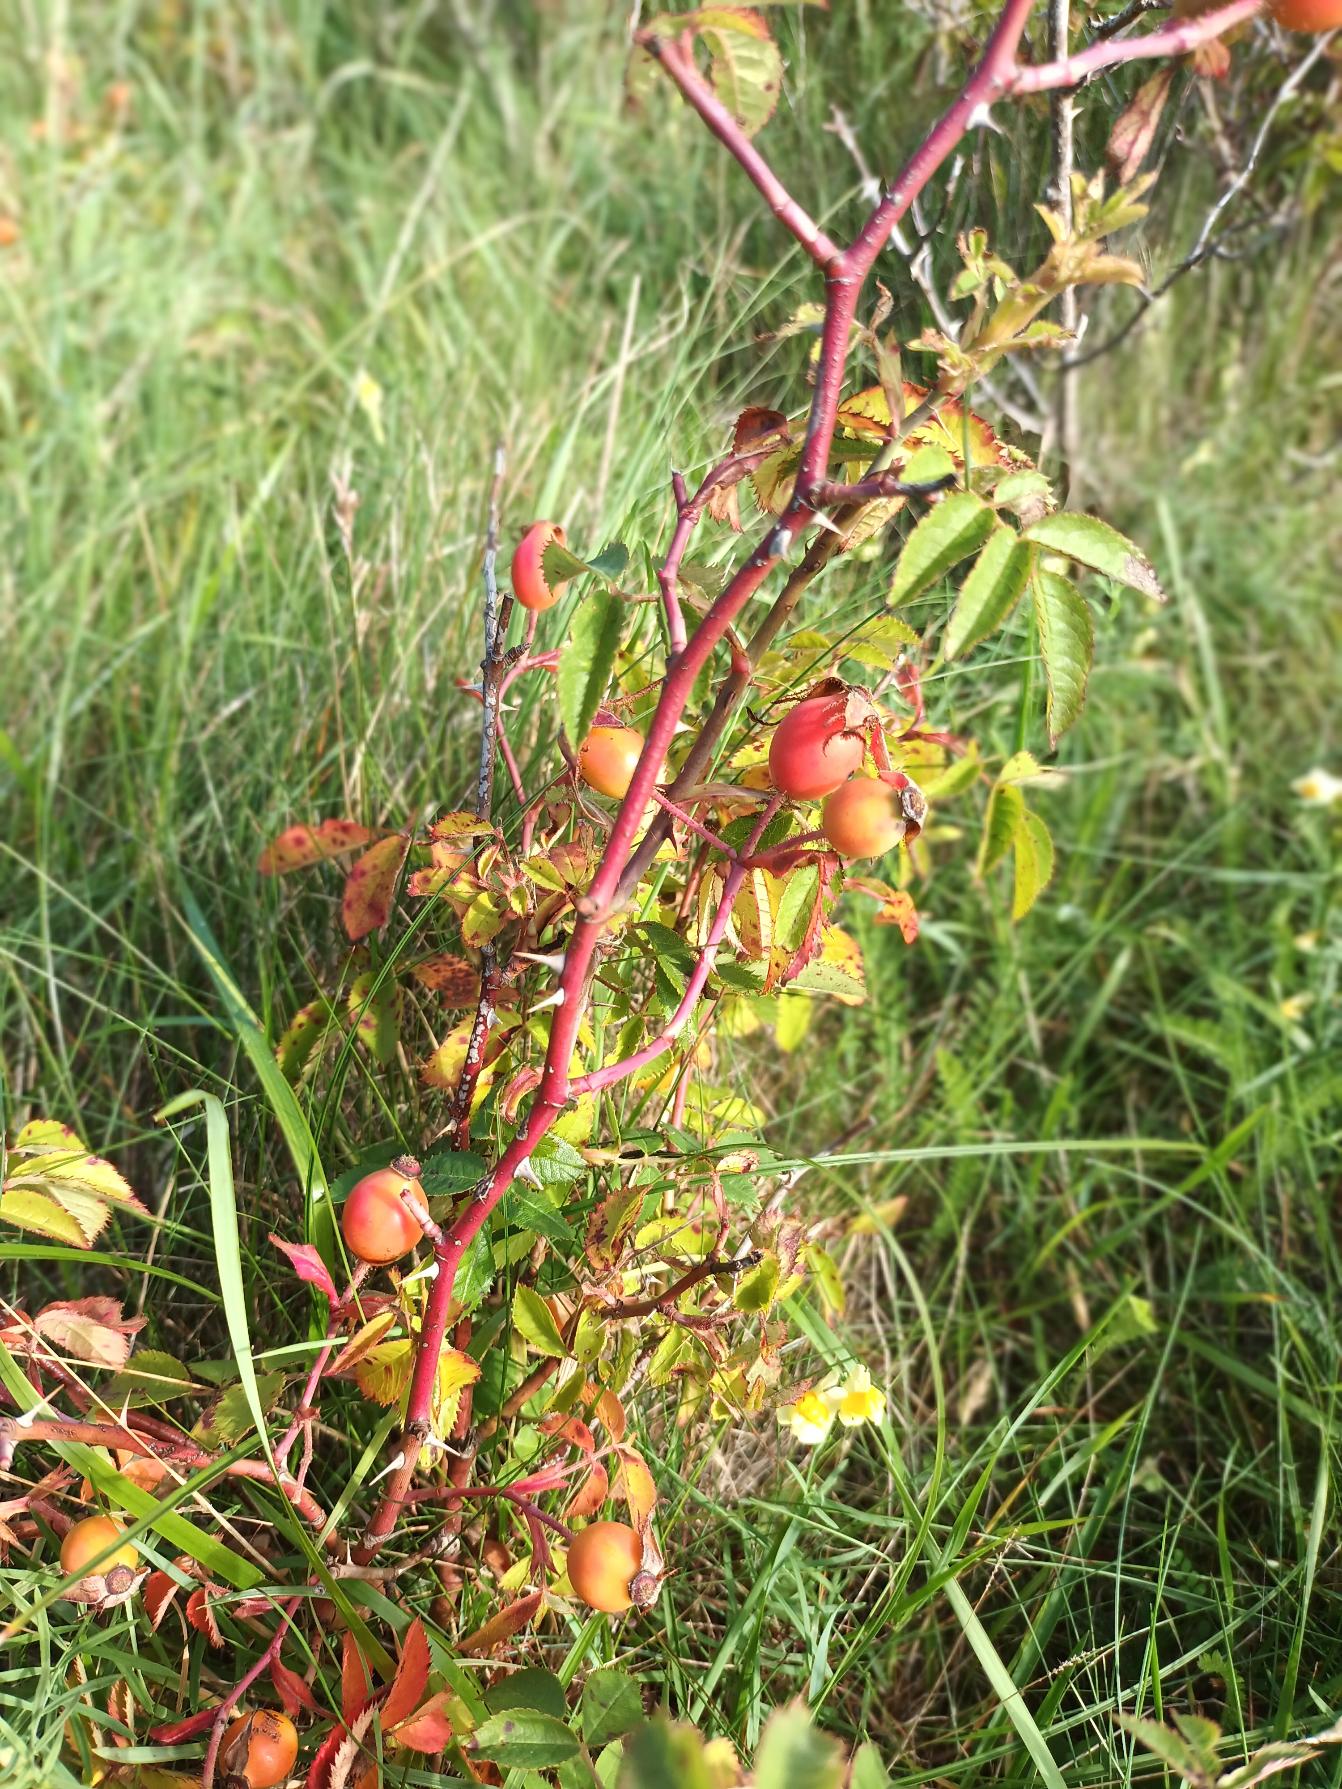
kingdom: Plantae
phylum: Tracheophyta
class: Magnoliopsida
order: Rosales
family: Rosaceae
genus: Rosa
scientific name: Rosa tomentosa
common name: Langstilket filt-rose
